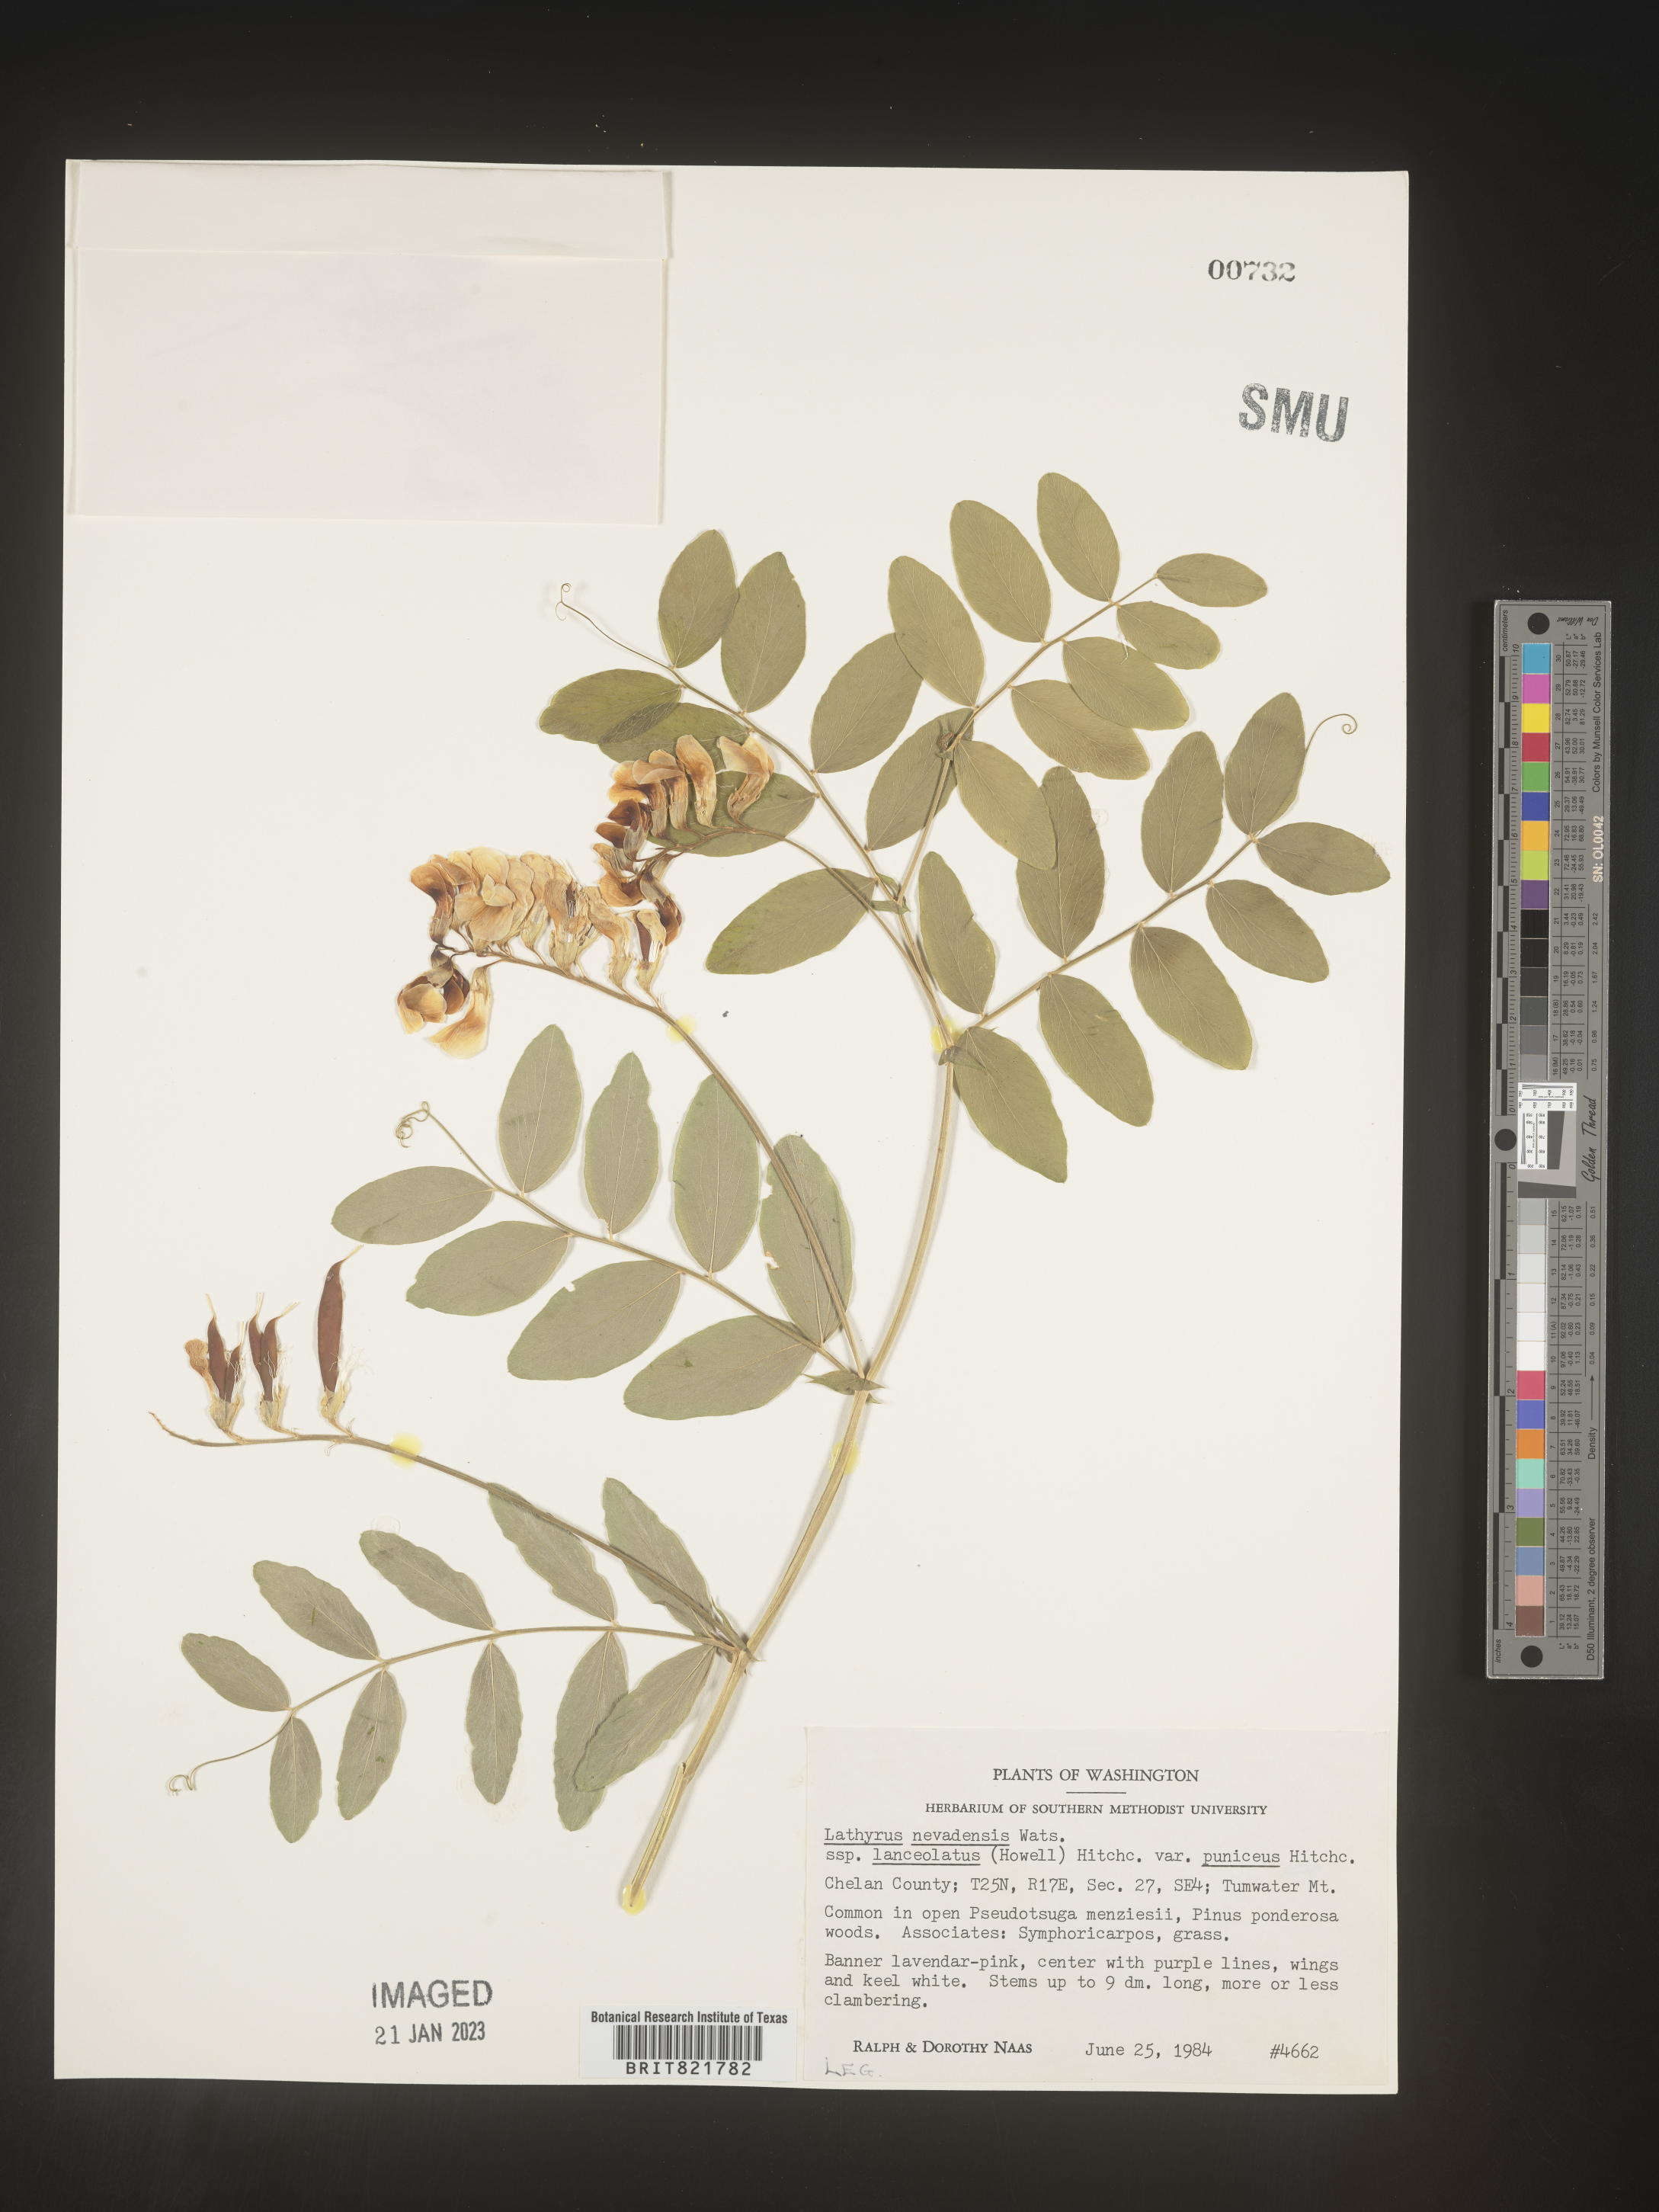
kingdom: Plantae
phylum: Tracheophyta
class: Magnoliopsida
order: Fabales
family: Fabaceae
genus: Lathyrus
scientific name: Lathyrus
